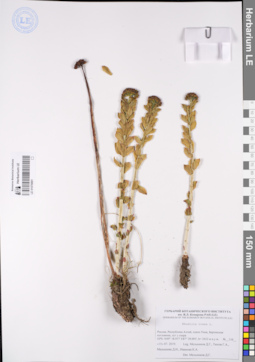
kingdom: Plantae
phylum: Tracheophyta
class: Magnoliopsida
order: Saxifragales
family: Crassulaceae
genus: Rhodiola
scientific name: Rhodiola rosea
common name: Roseroot
